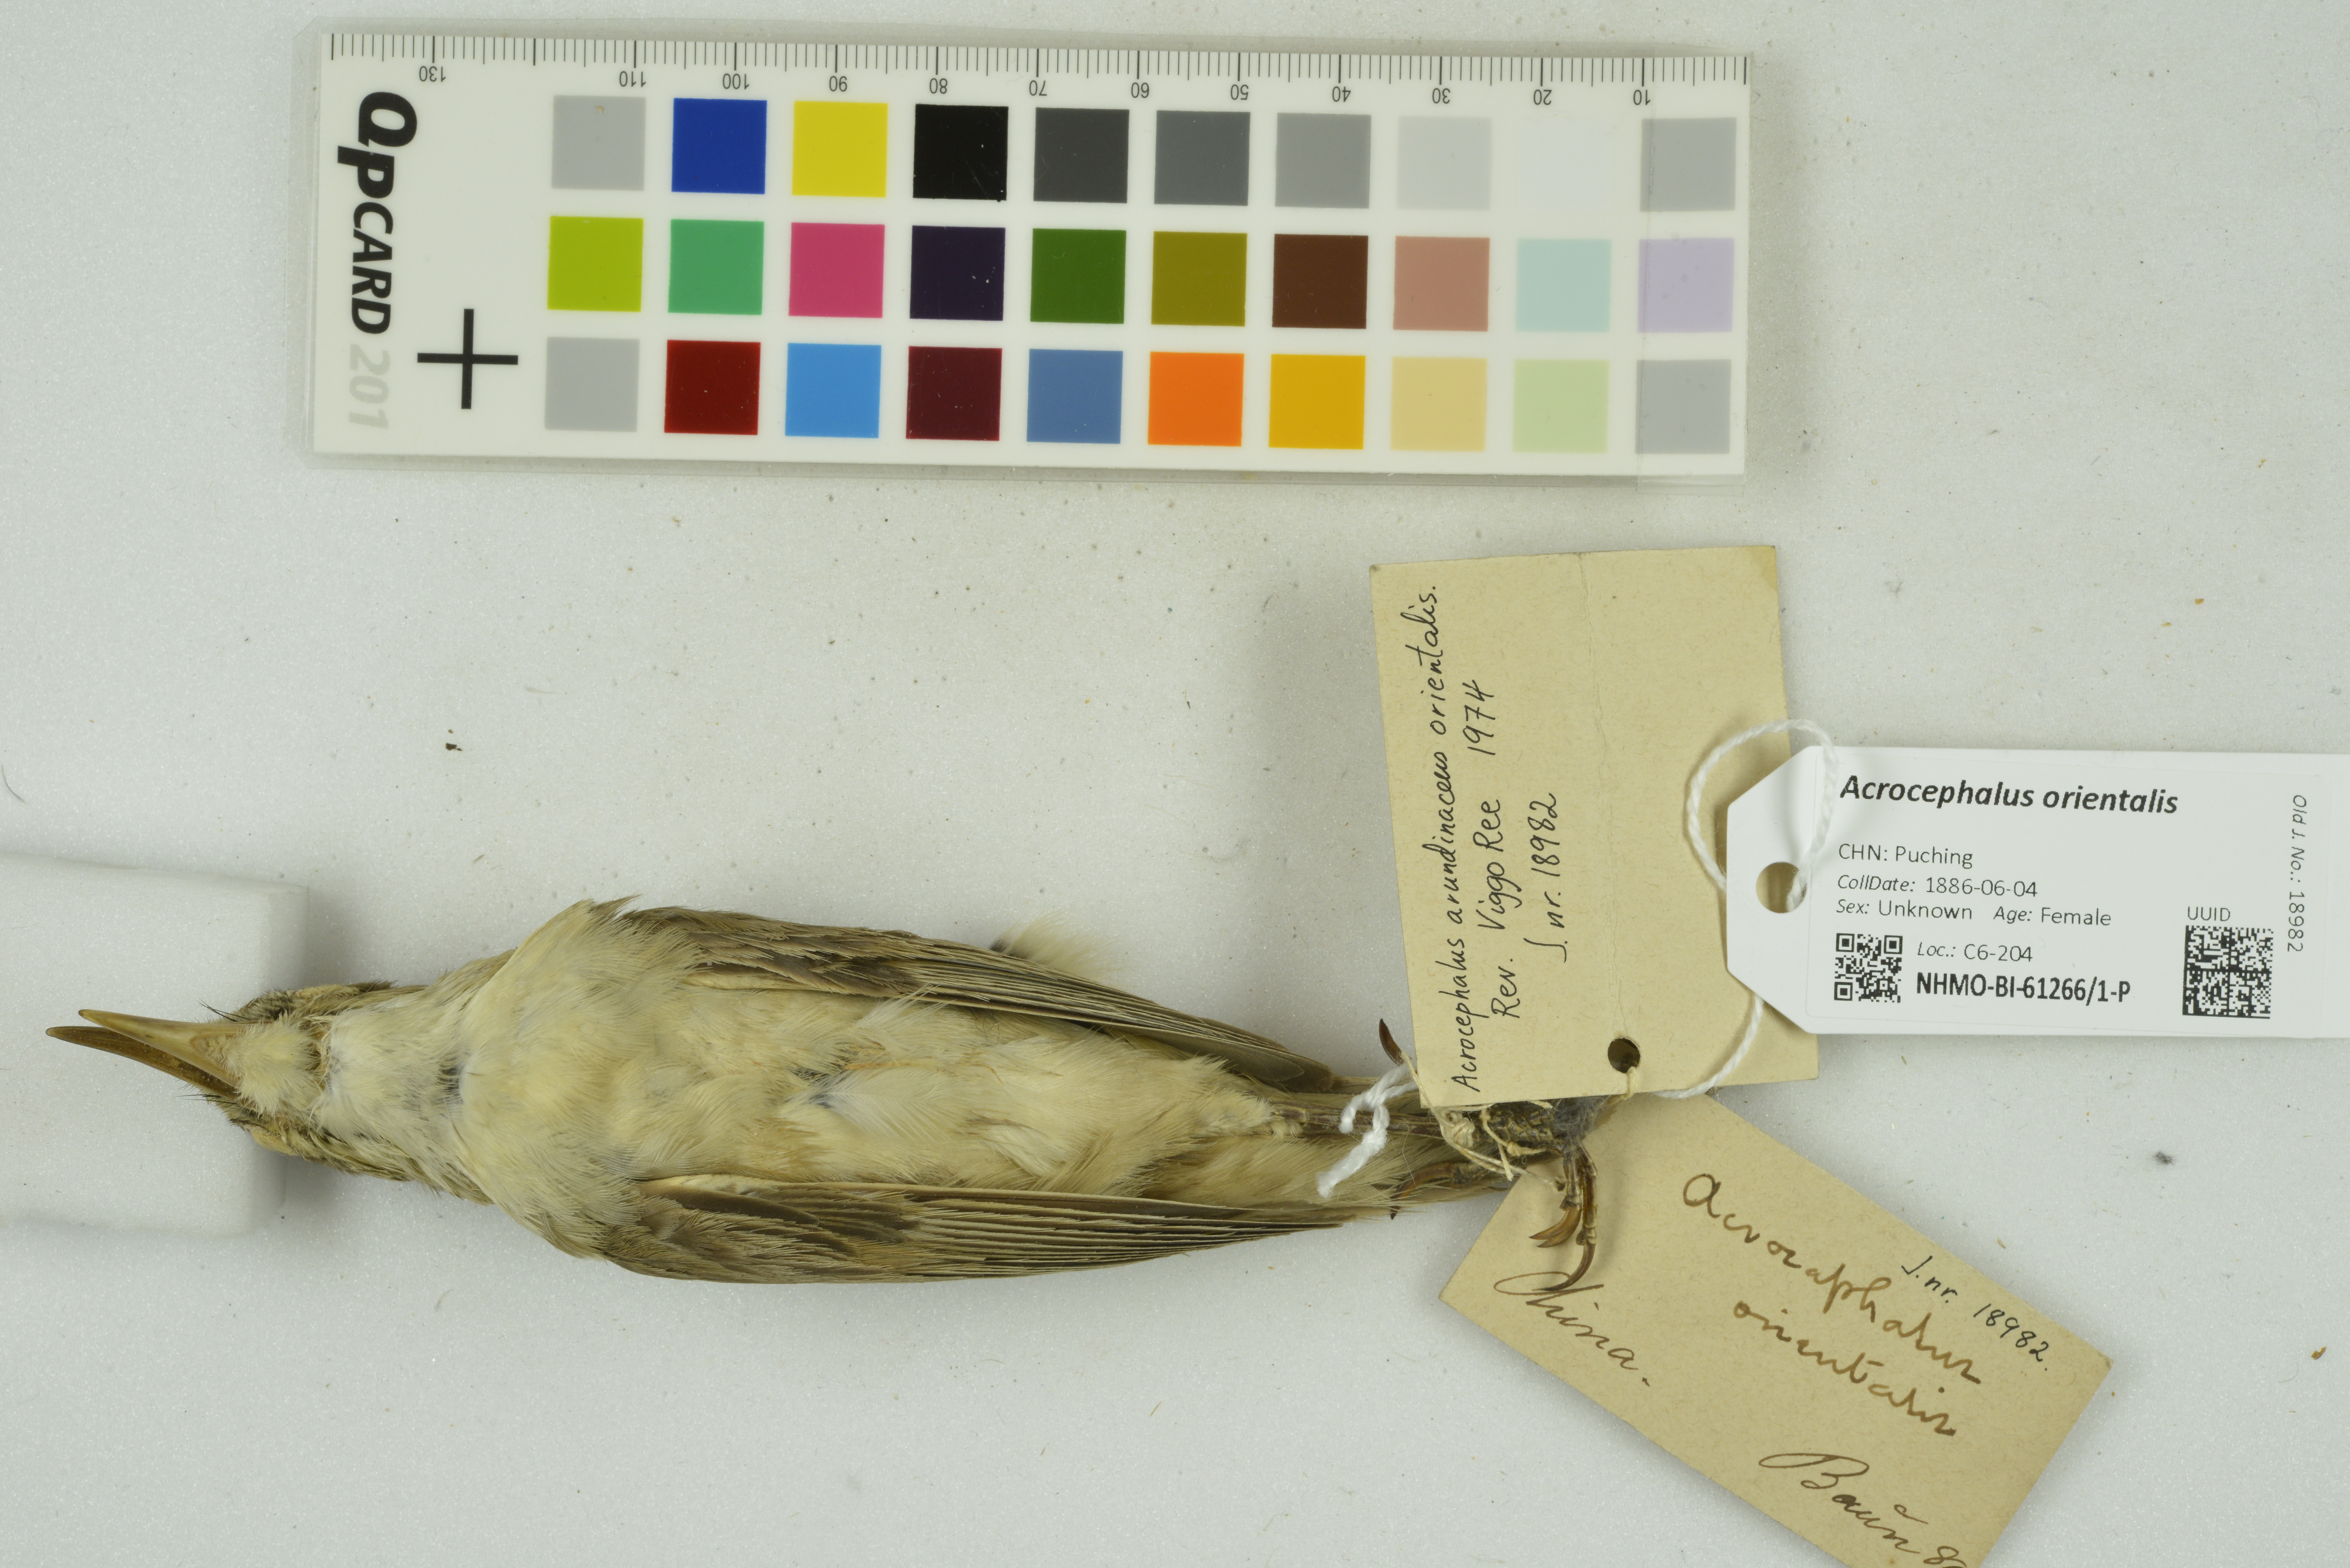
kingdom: Animalia
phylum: Chordata
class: Aves
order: Passeriformes
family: Acrocephalidae
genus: Acrocephalus
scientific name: Acrocephalus orientalis
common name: Oriental reed warbler
